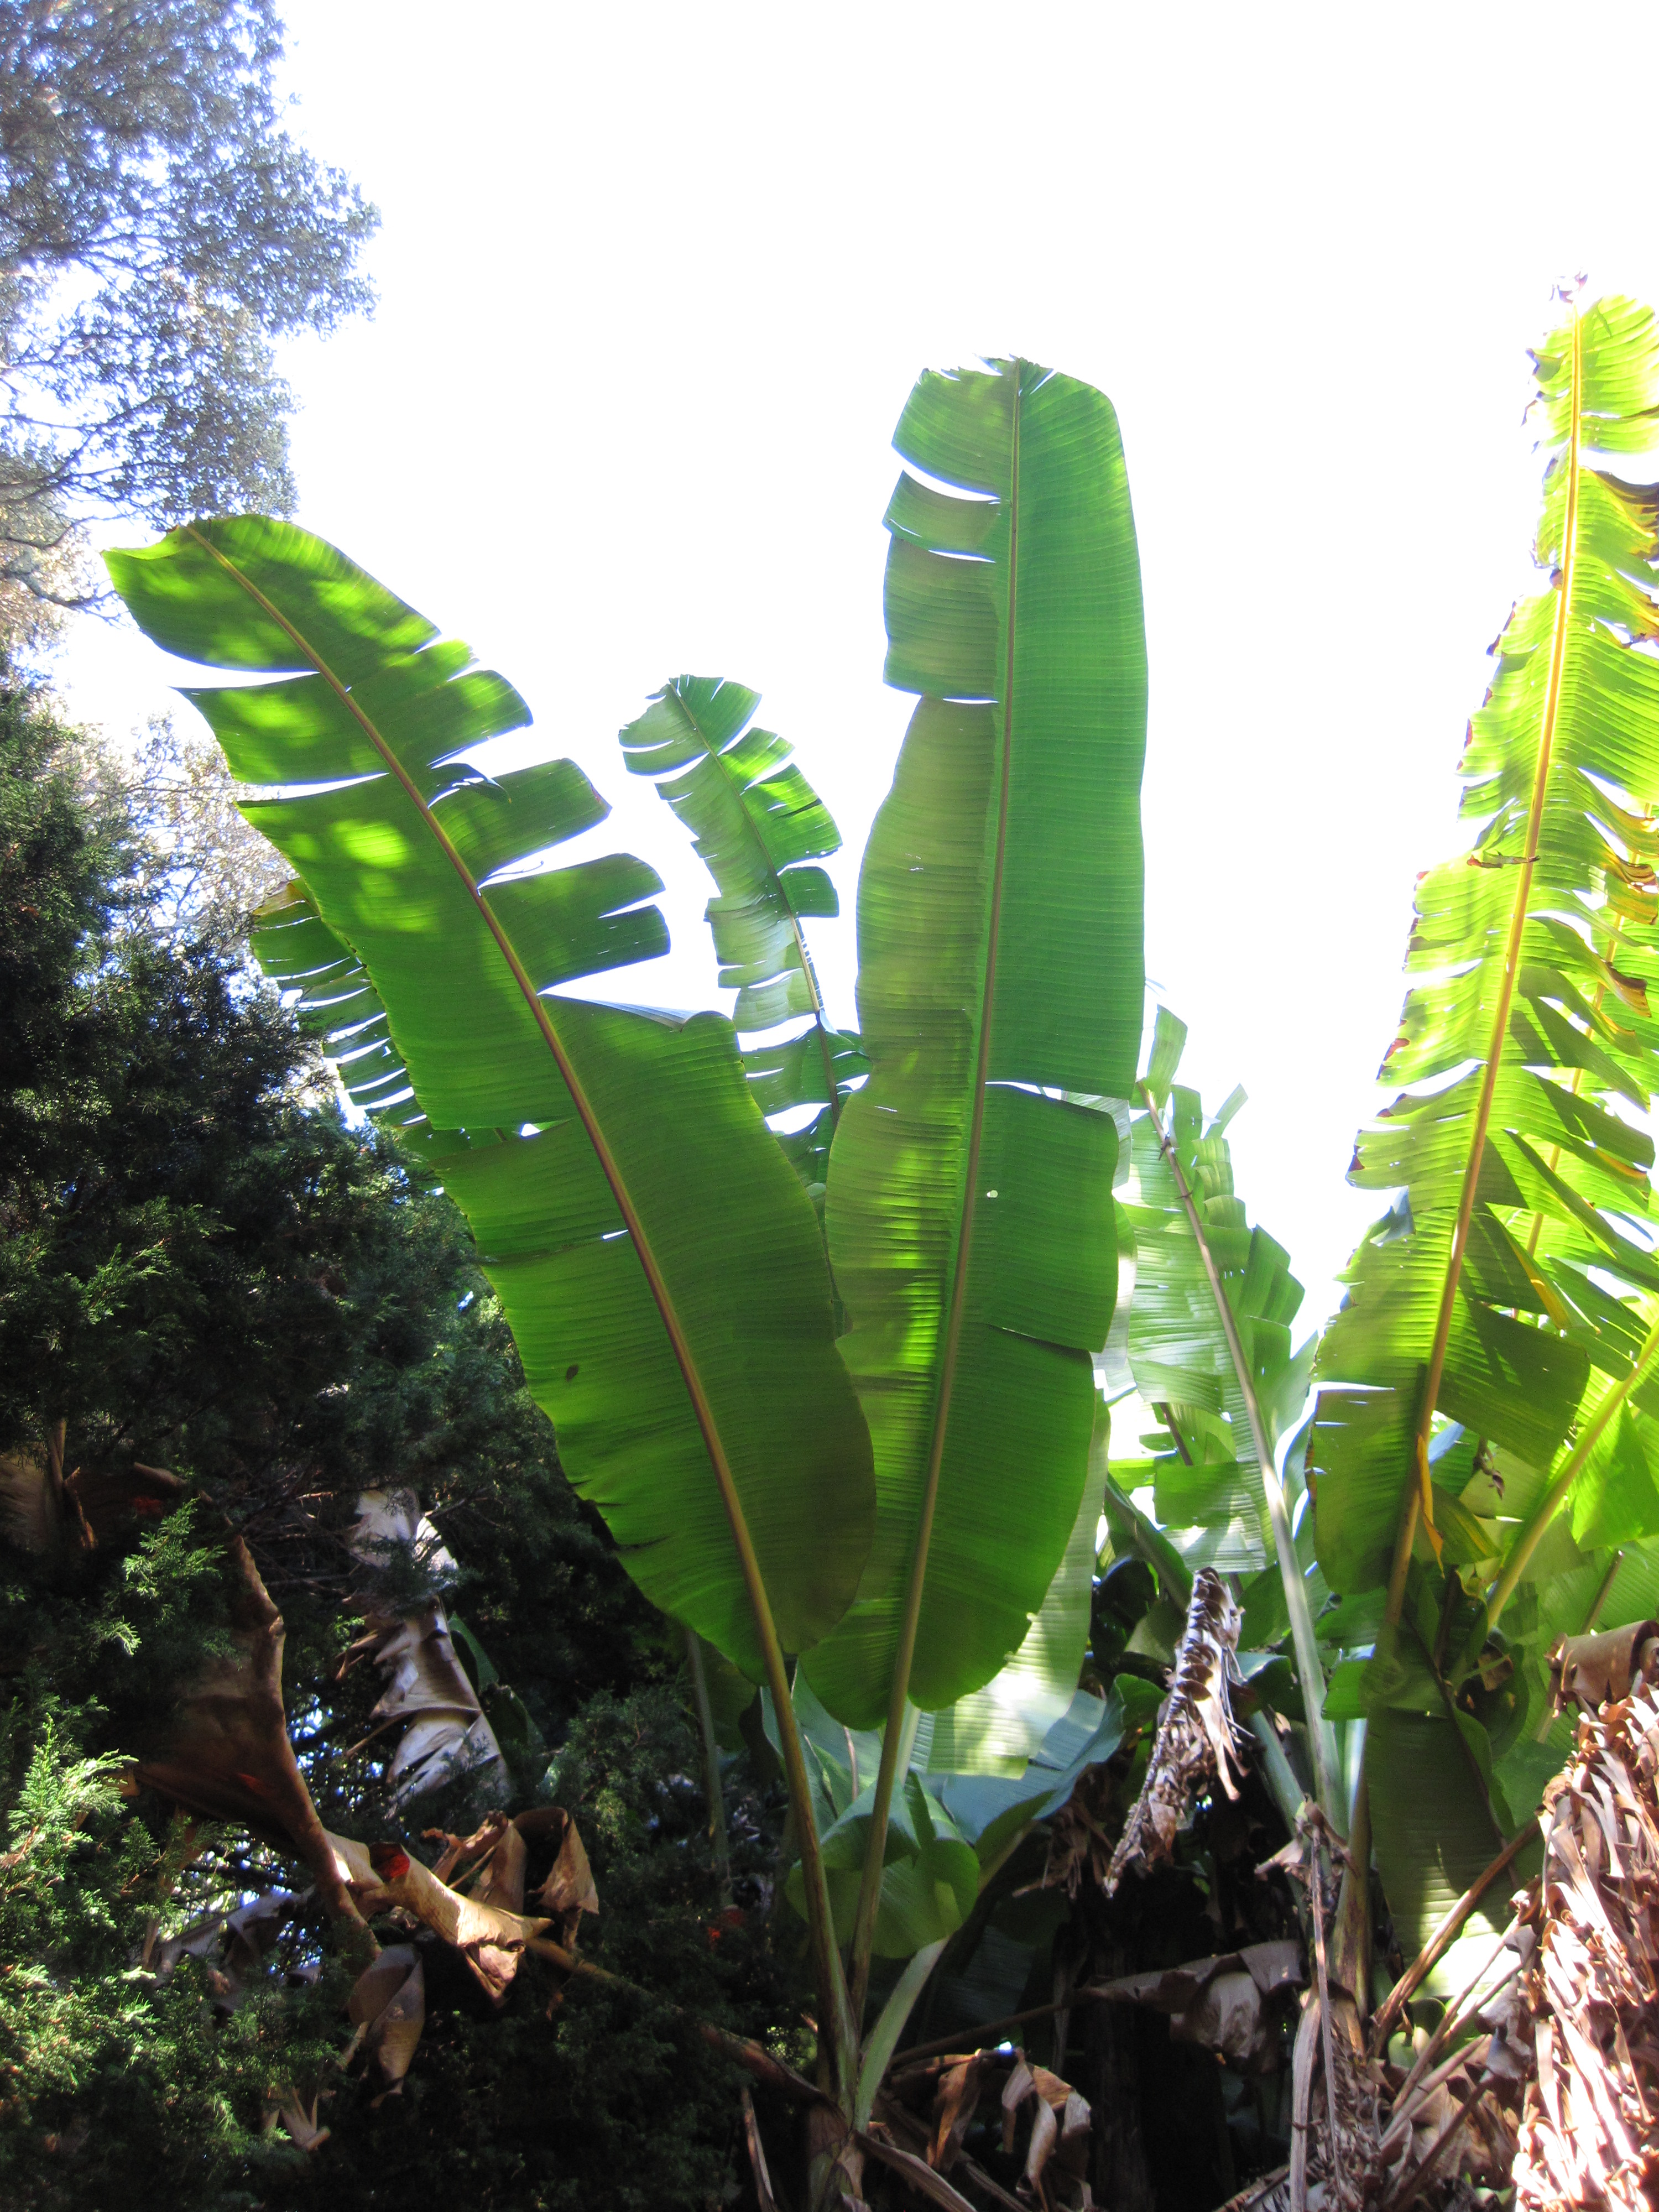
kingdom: Plantae
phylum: Tracheophyta
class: Liliopsida
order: Zingiberales
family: Musaceae
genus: Musa
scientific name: Musa basjoo
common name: Japanese fibre banana
